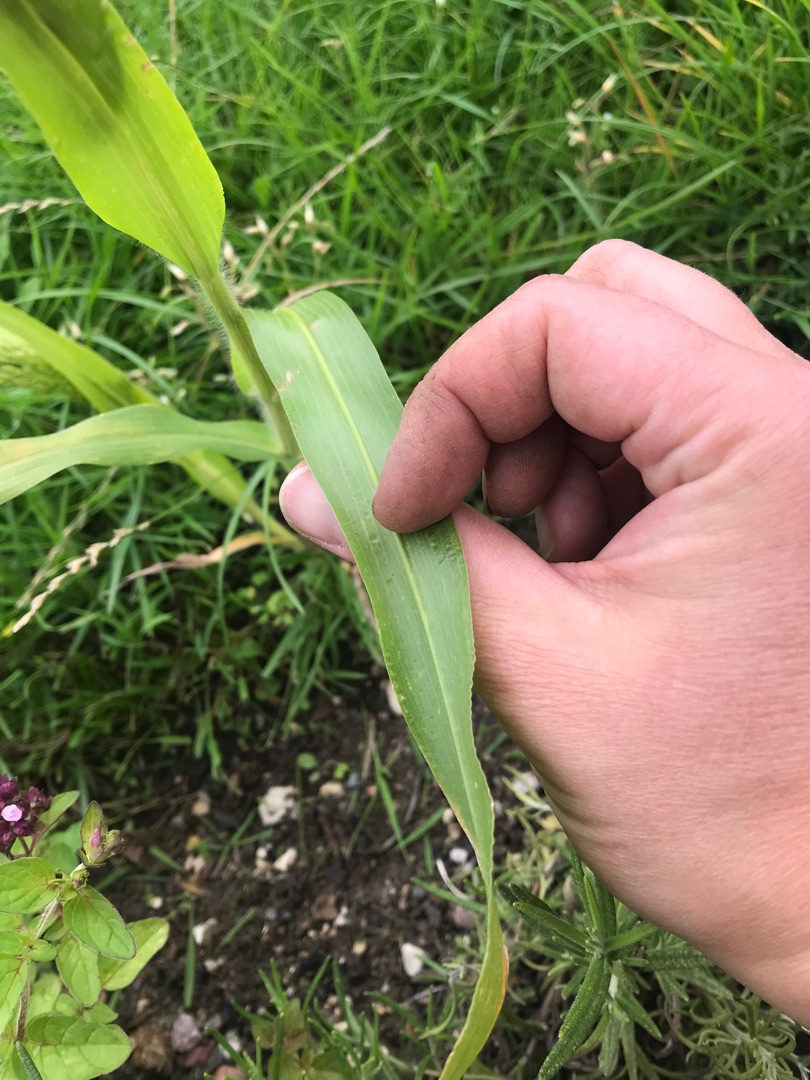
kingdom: Plantae
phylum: Tracheophyta
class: Liliopsida
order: Poales
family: Poaceae
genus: Panicum
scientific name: Panicum miliaceum
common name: Almindelig hirse
